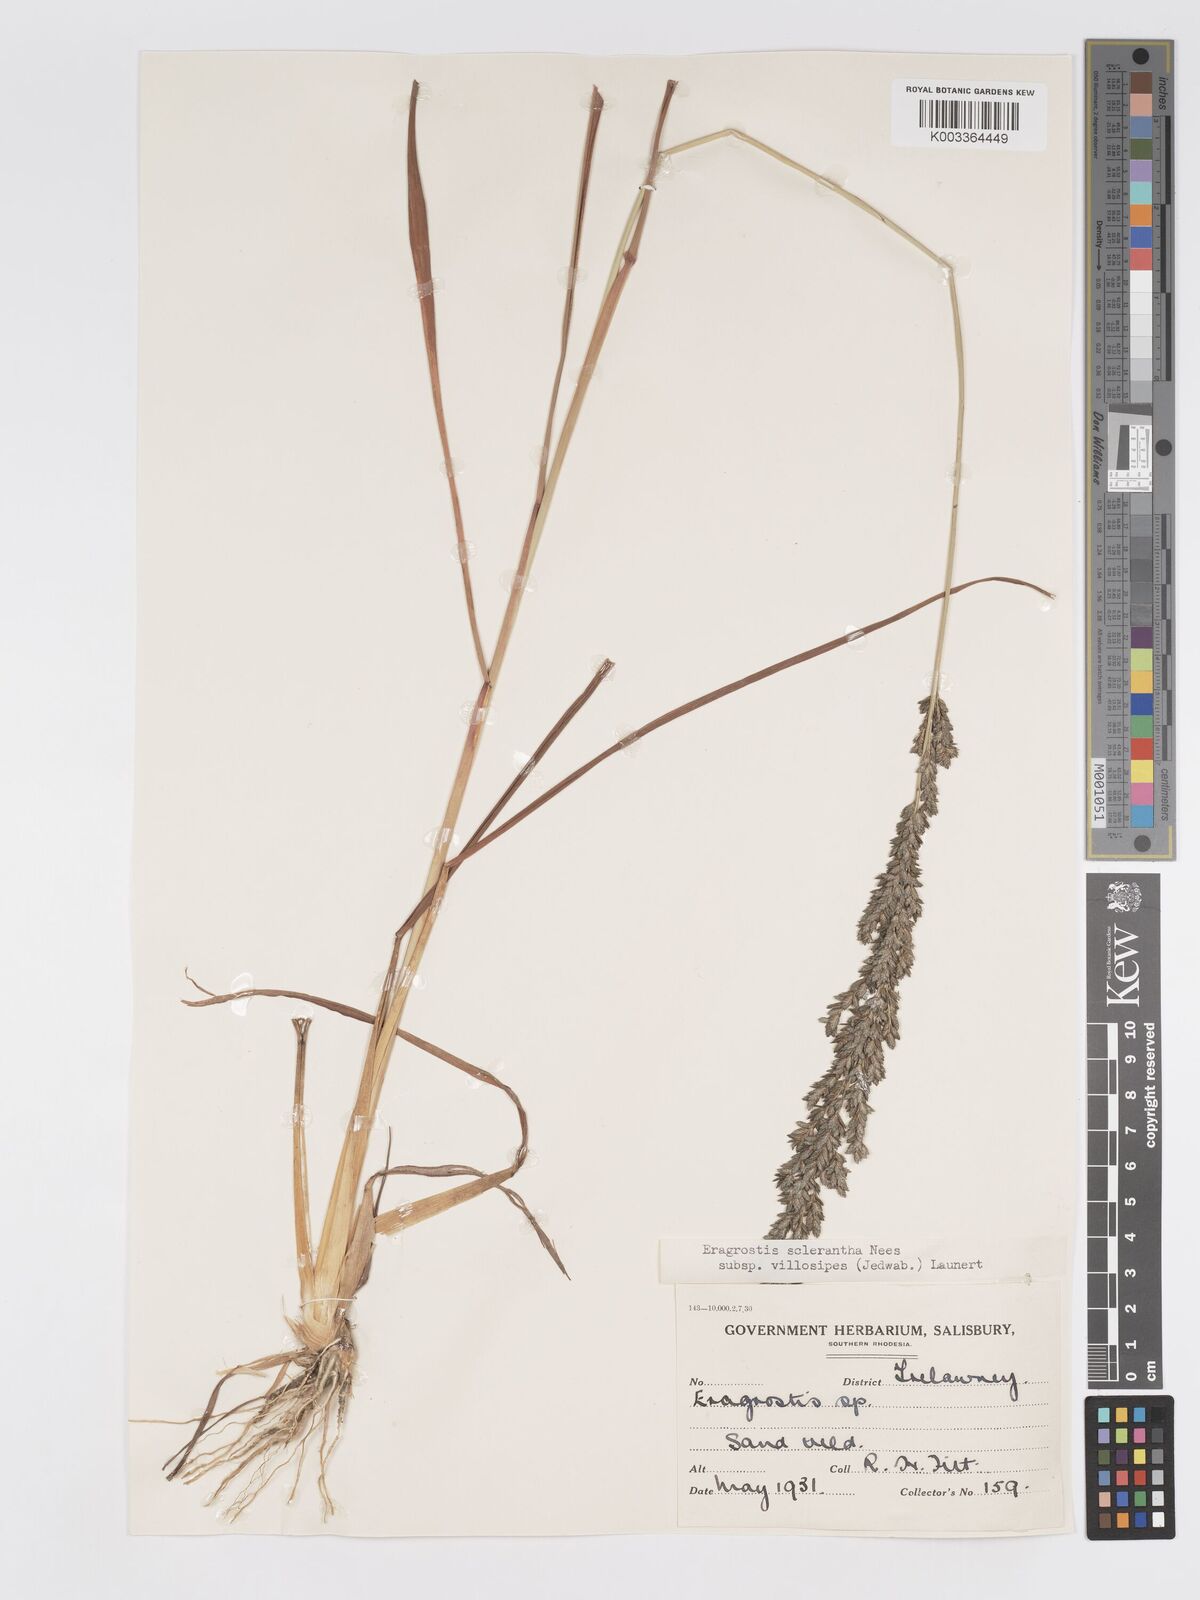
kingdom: Plantae
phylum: Tracheophyta
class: Liliopsida
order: Poales
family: Poaceae
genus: Eragrostis
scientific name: Eragrostis sclerantha
